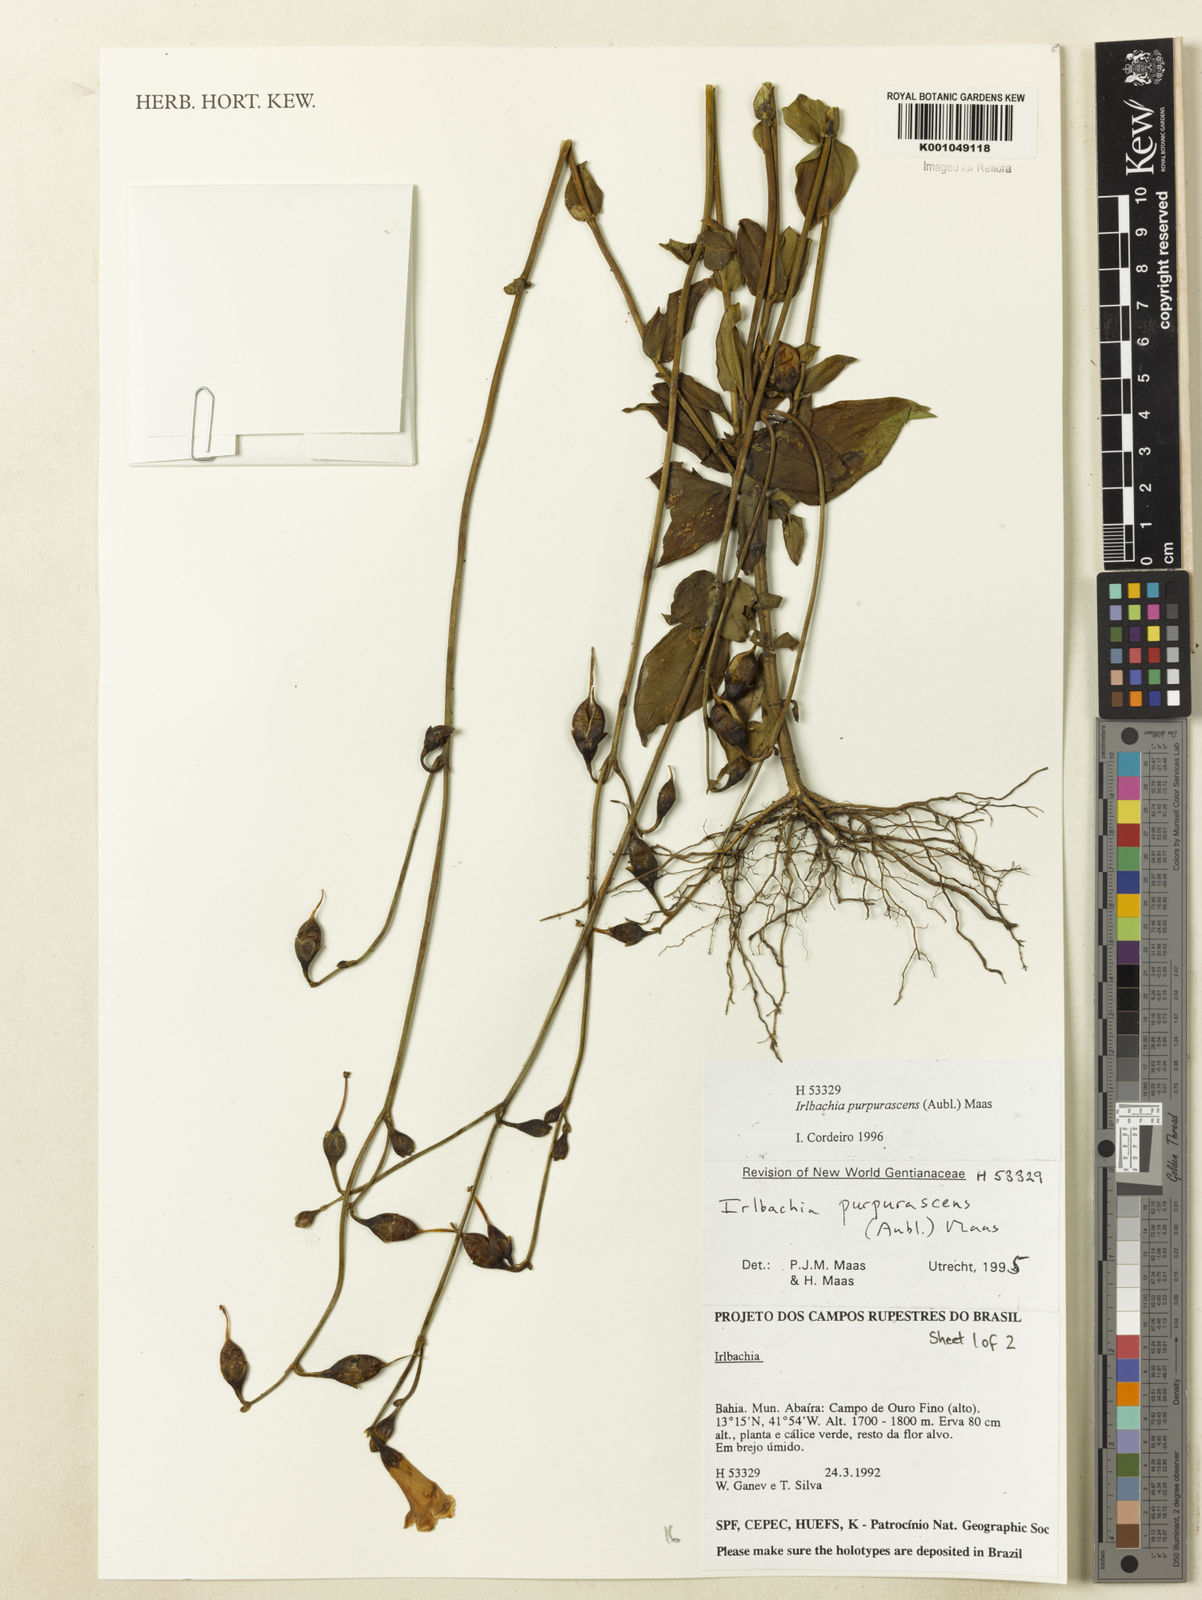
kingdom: Plantae
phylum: Tracheophyta
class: Magnoliopsida
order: Gentianales
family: Gentianaceae
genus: Chelonanthus
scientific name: Chelonanthus purpurascens
